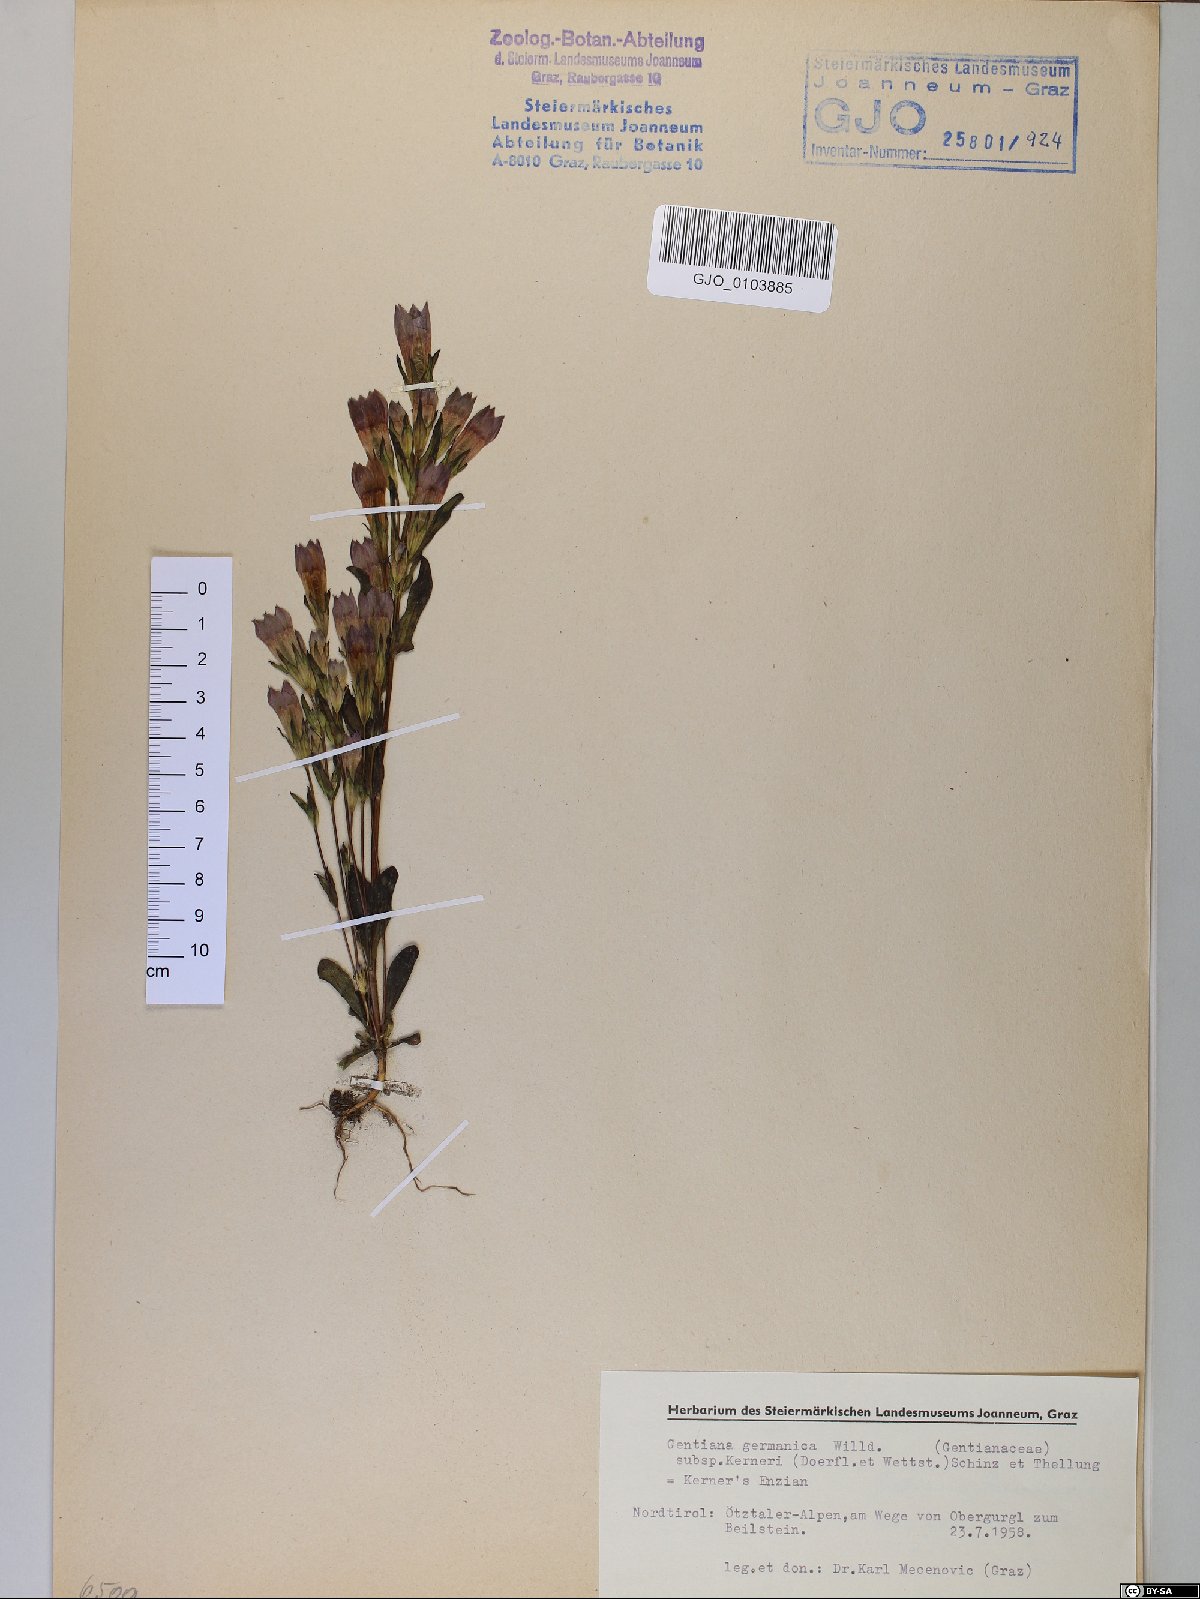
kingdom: Plantae
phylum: Tracheophyta
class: Magnoliopsida
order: Gentianales
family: Gentianaceae
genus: Gentianella
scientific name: Gentianella rhaetica
